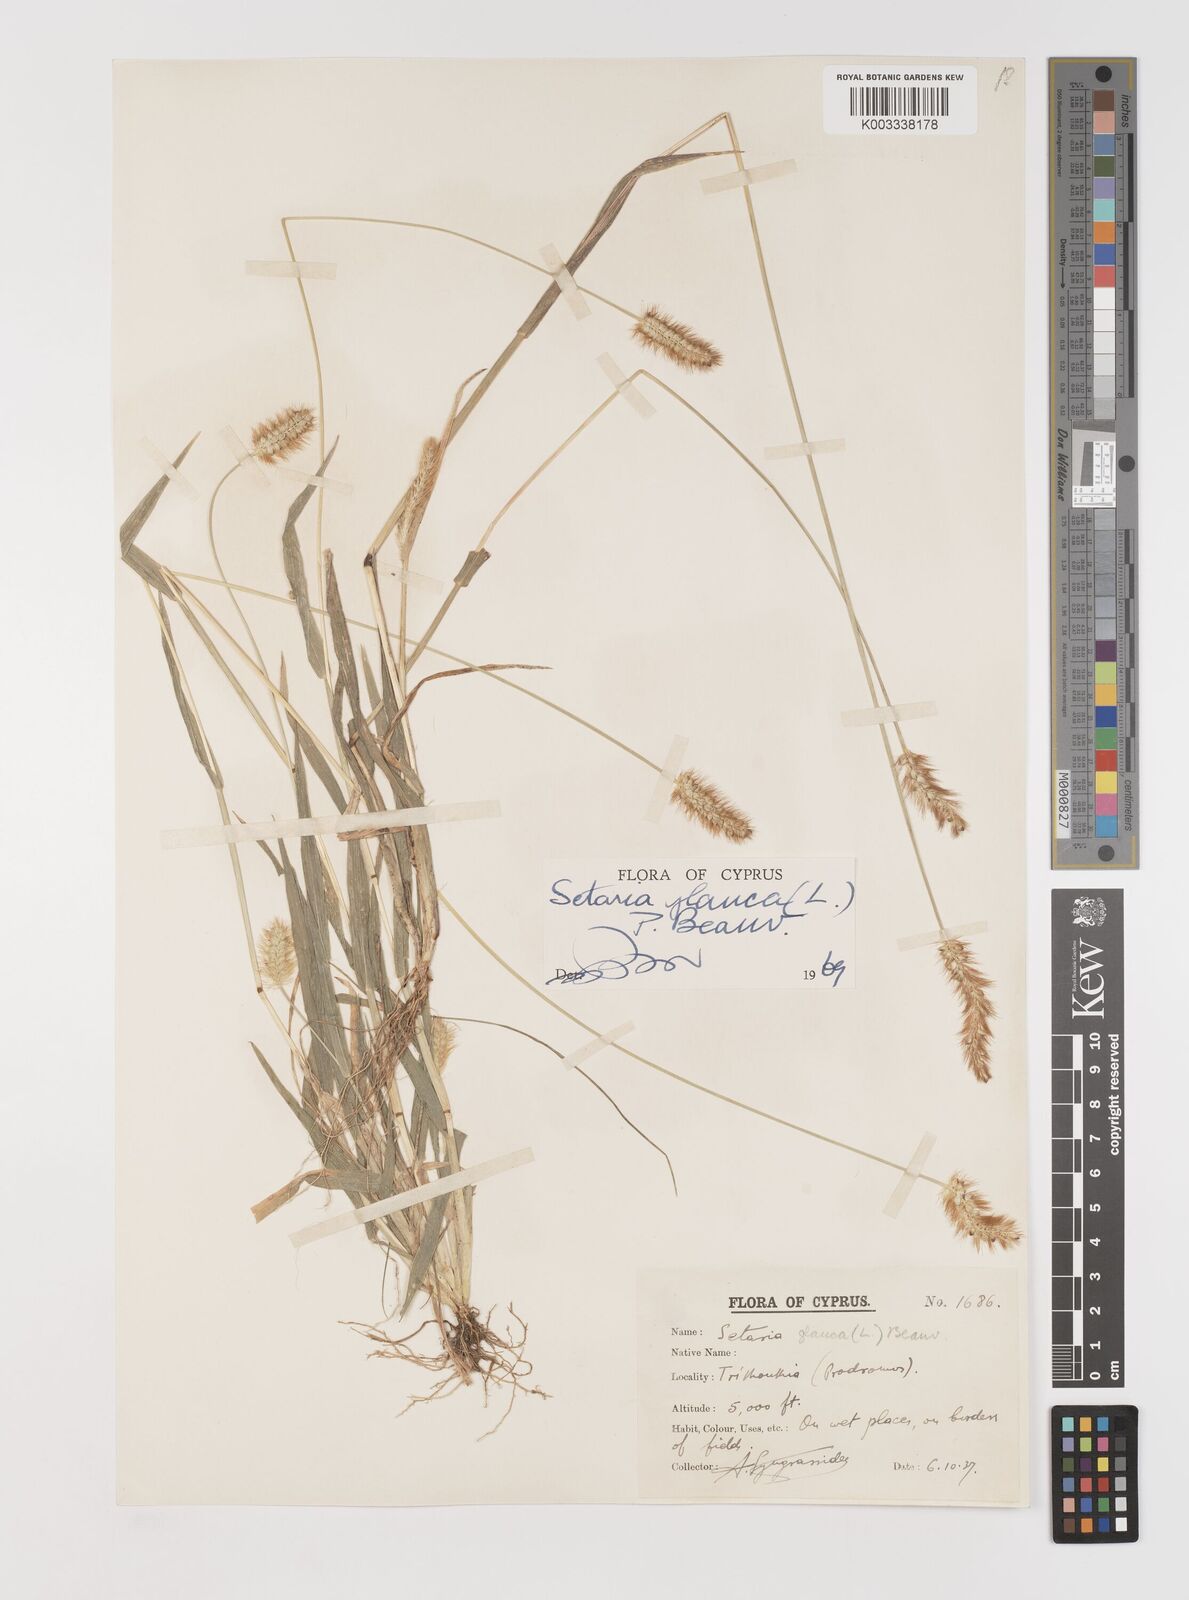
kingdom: Plantae
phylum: Tracheophyta
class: Liliopsida
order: Poales
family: Poaceae
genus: Setaria
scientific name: Setaria pumila
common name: Yellow bristle-grass
